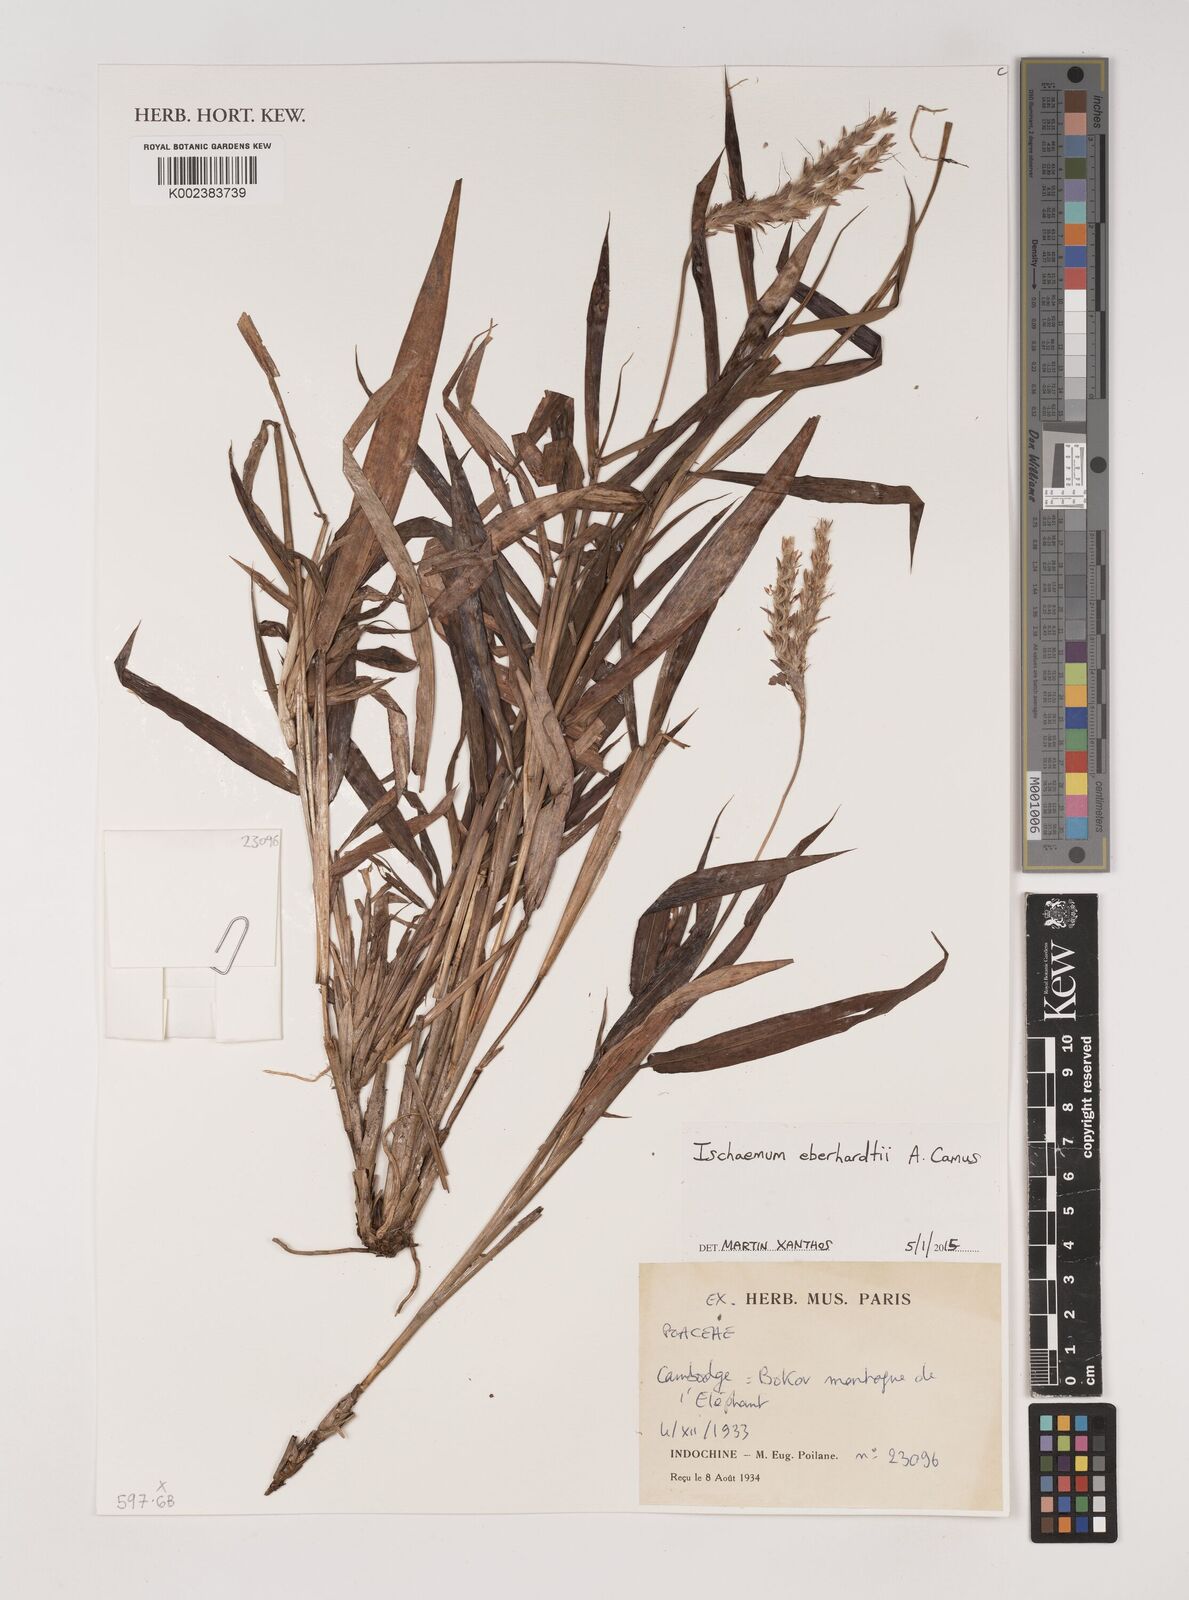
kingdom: Plantae
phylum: Tracheophyta
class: Liliopsida
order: Poales
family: Poaceae
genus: Ischaemum
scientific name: Ischaemum eberhardtii
